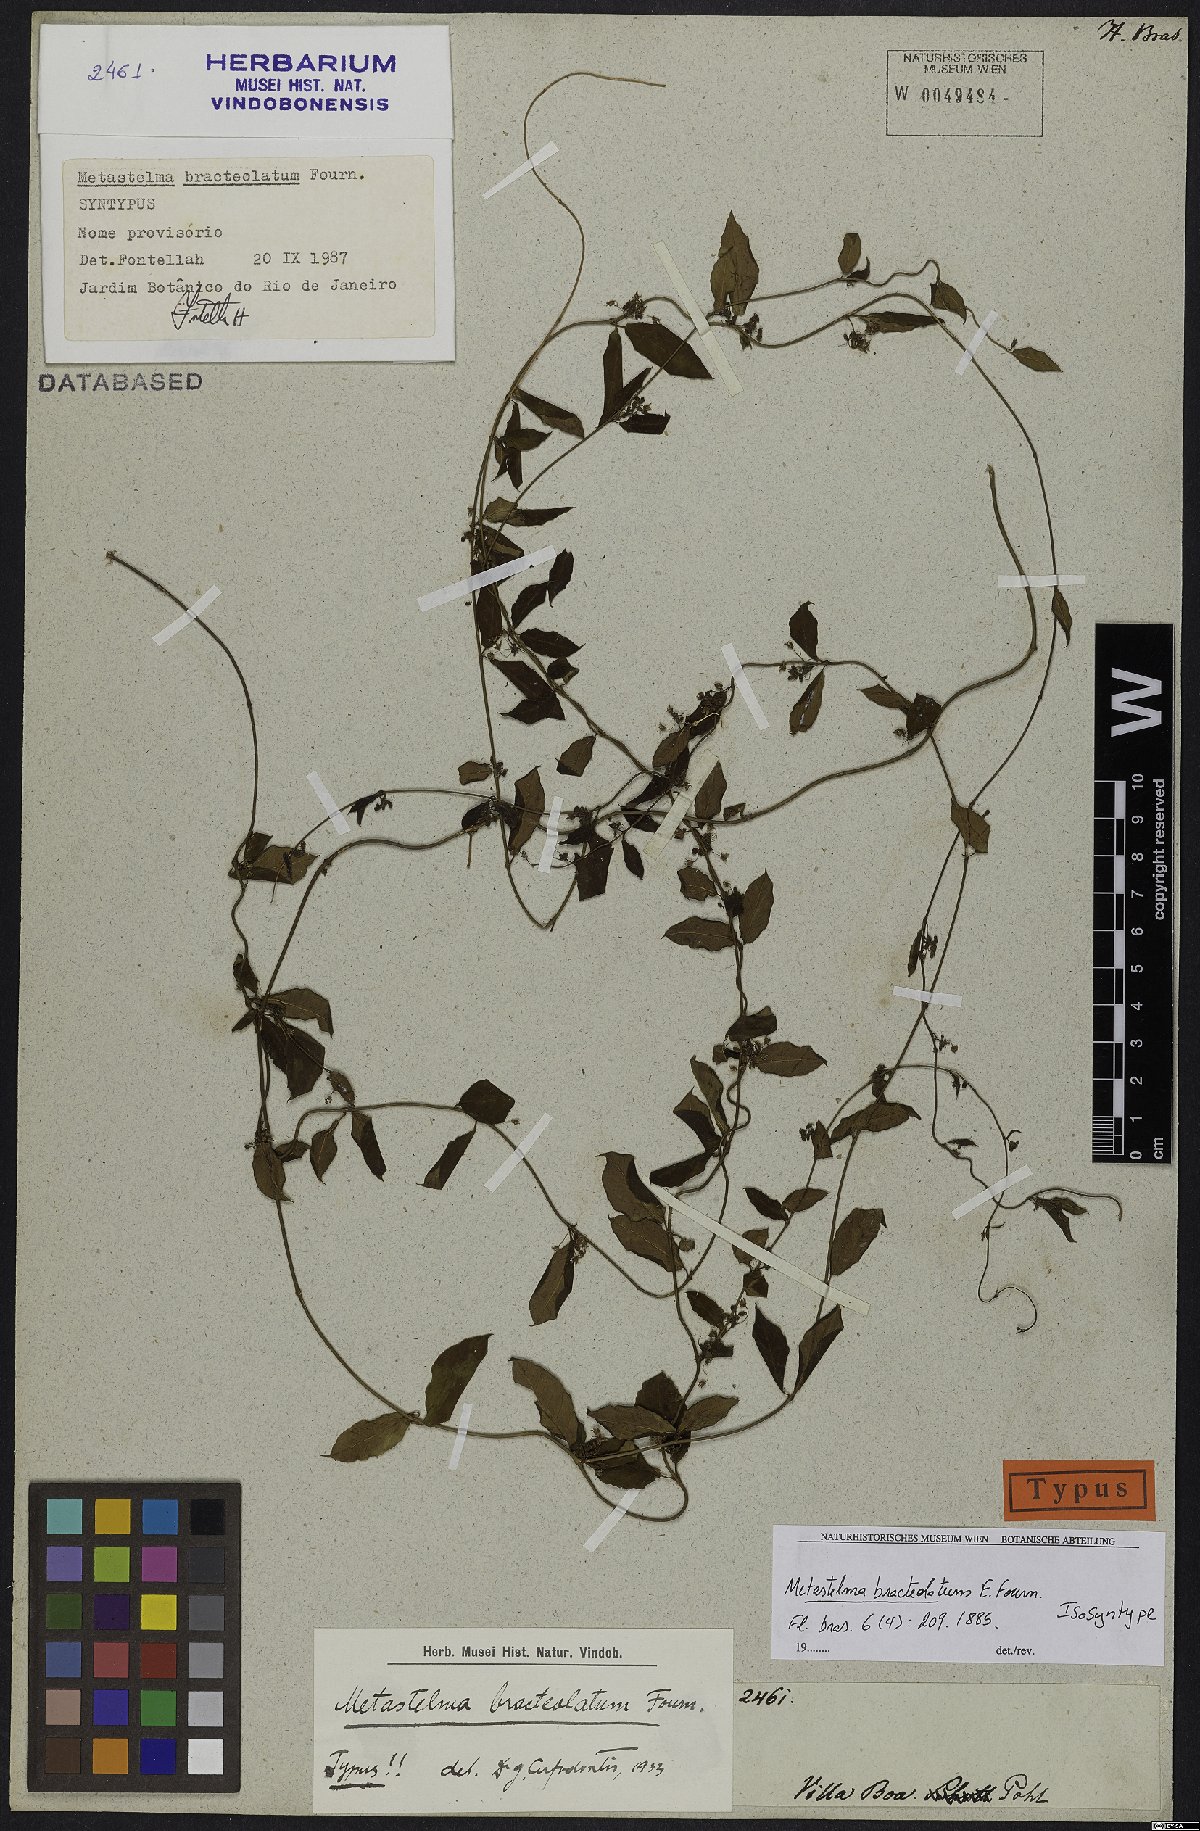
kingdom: Plantae
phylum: Tracheophyta
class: Magnoliopsida
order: Gentianales
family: Apocynaceae
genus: Petalostelma
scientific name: Petalostelma bracteolatum
